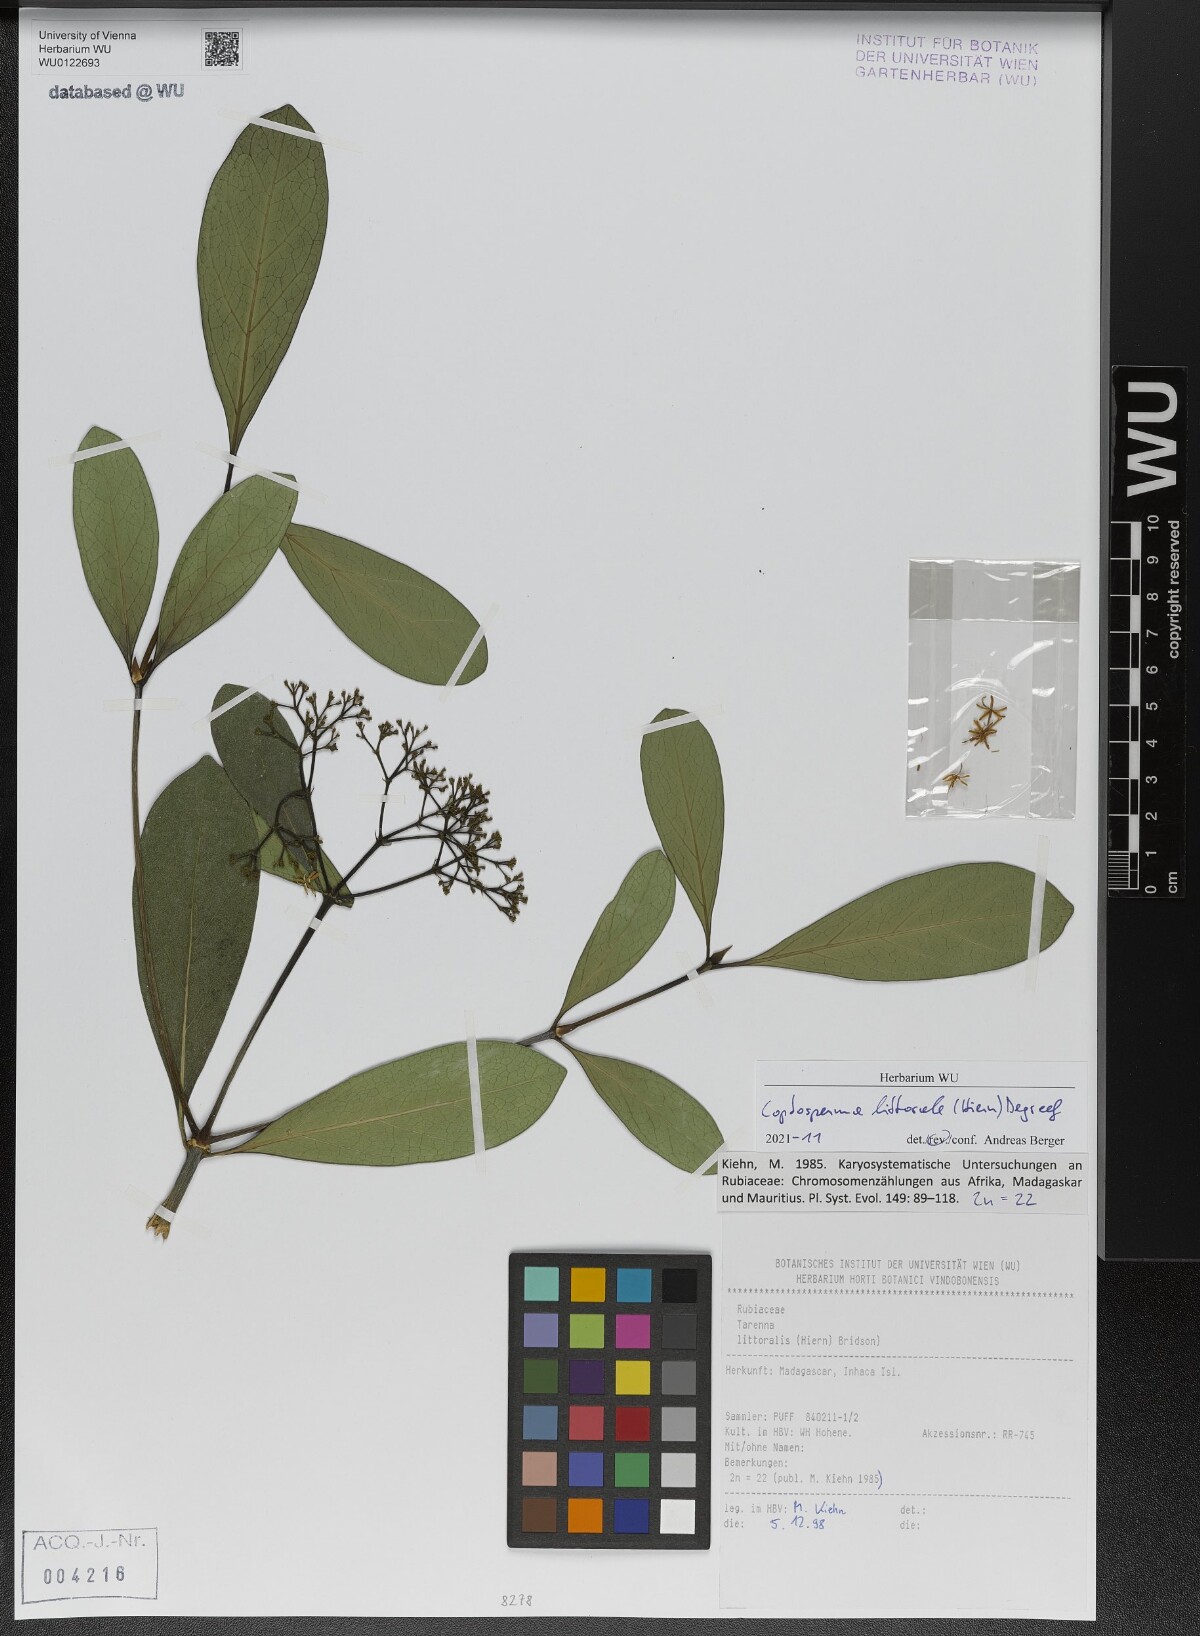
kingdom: Plantae
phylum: Tracheophyta
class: Magnoliopsida
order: Gentianales
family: Rubiaceae
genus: Coptosperma
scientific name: Coptosperma littorale
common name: Dune butterspoon
